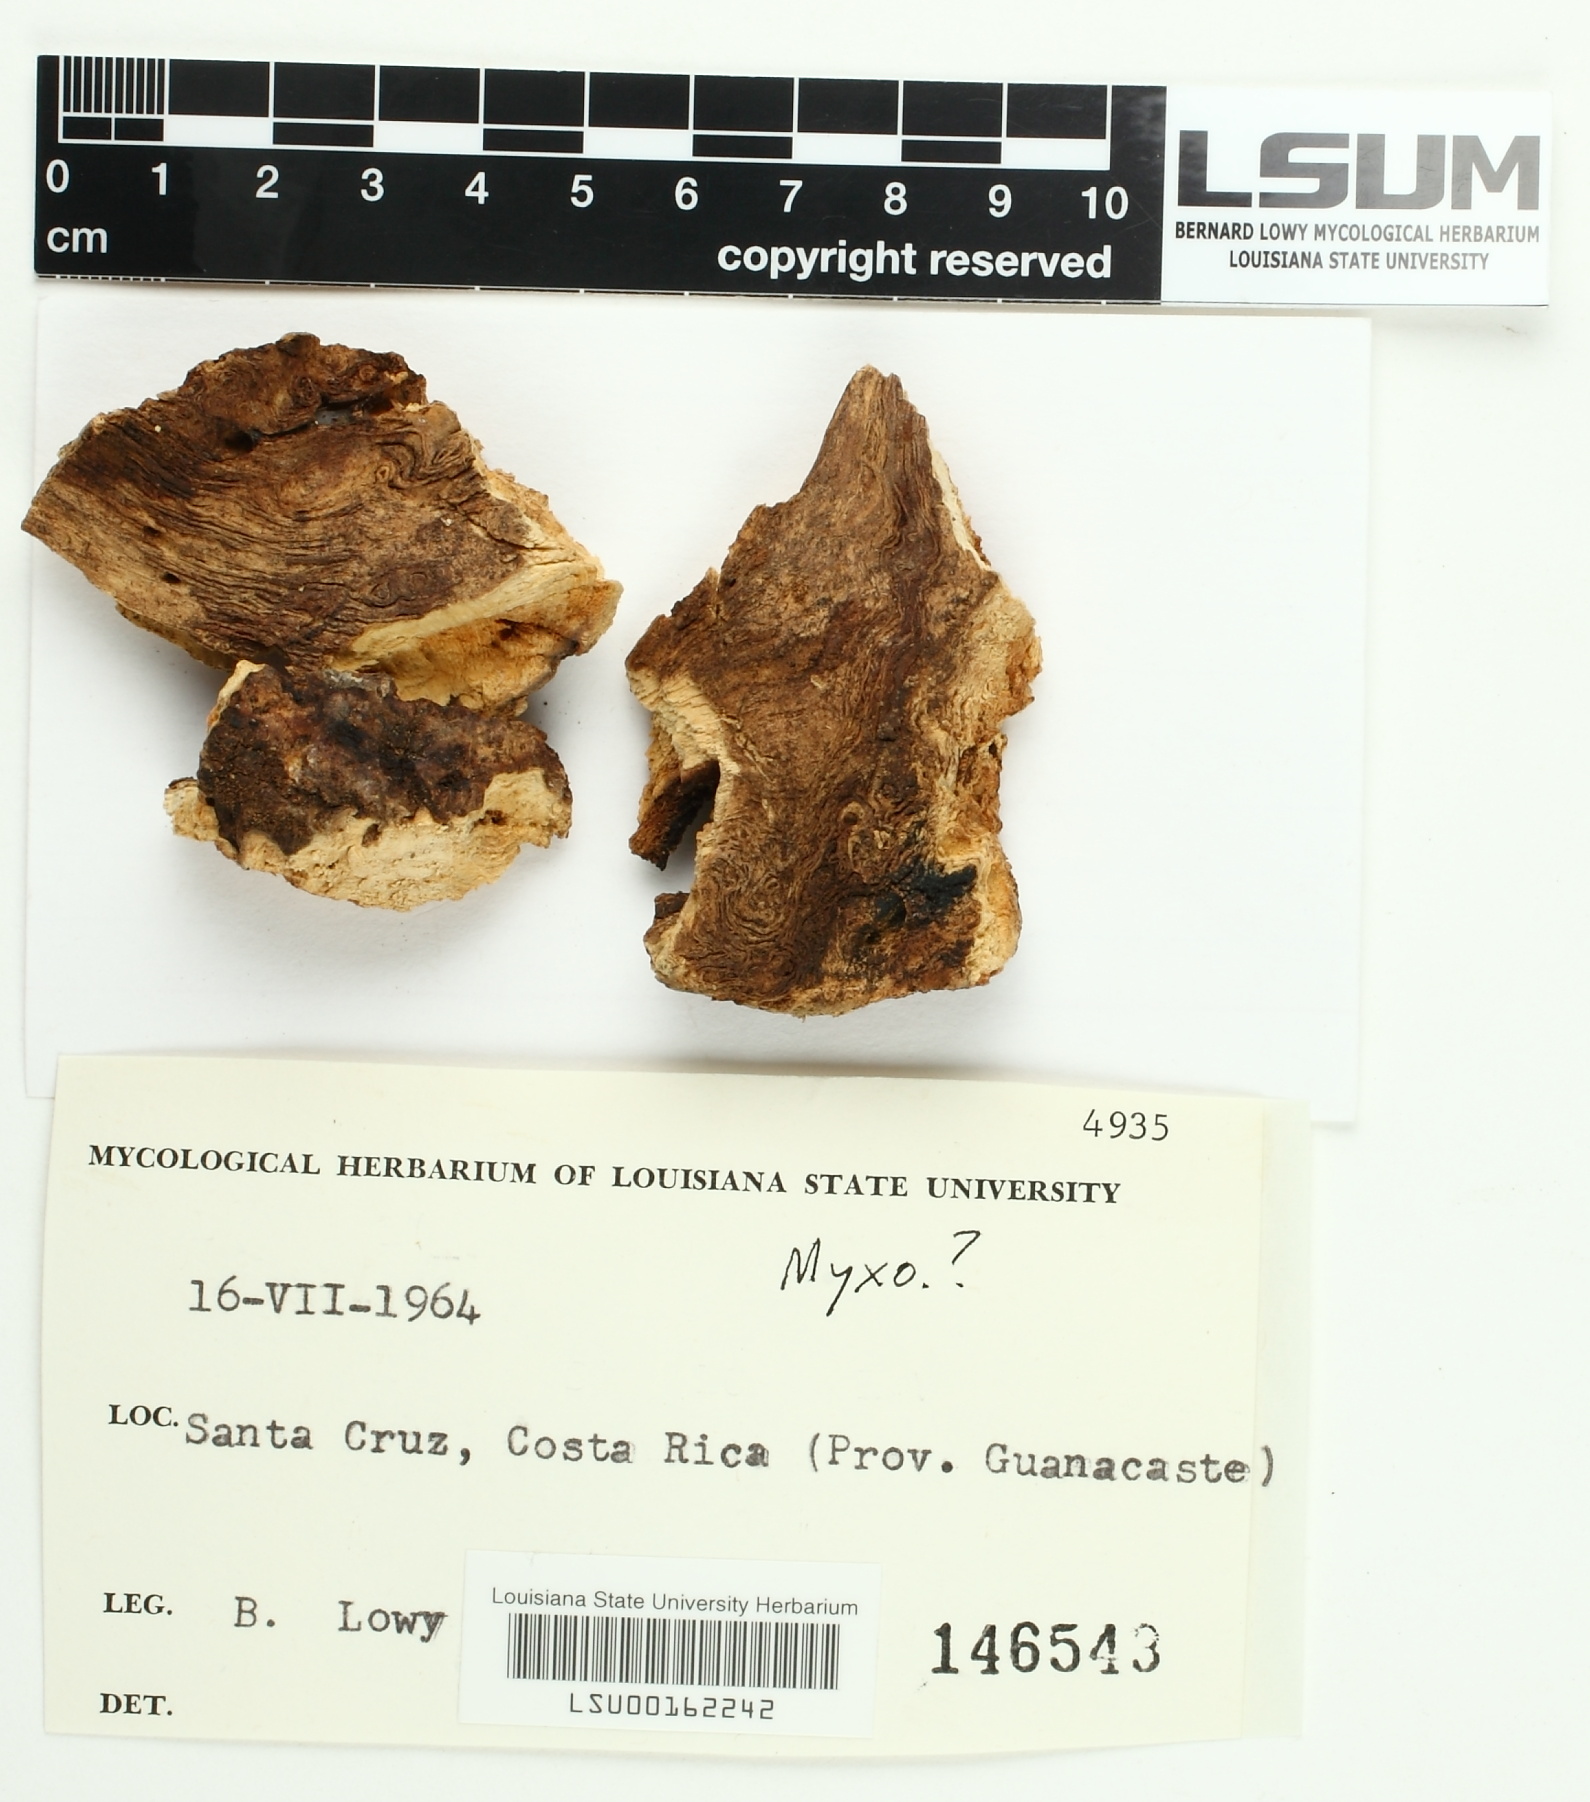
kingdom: Fungi
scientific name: Fungi
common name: Fungi
